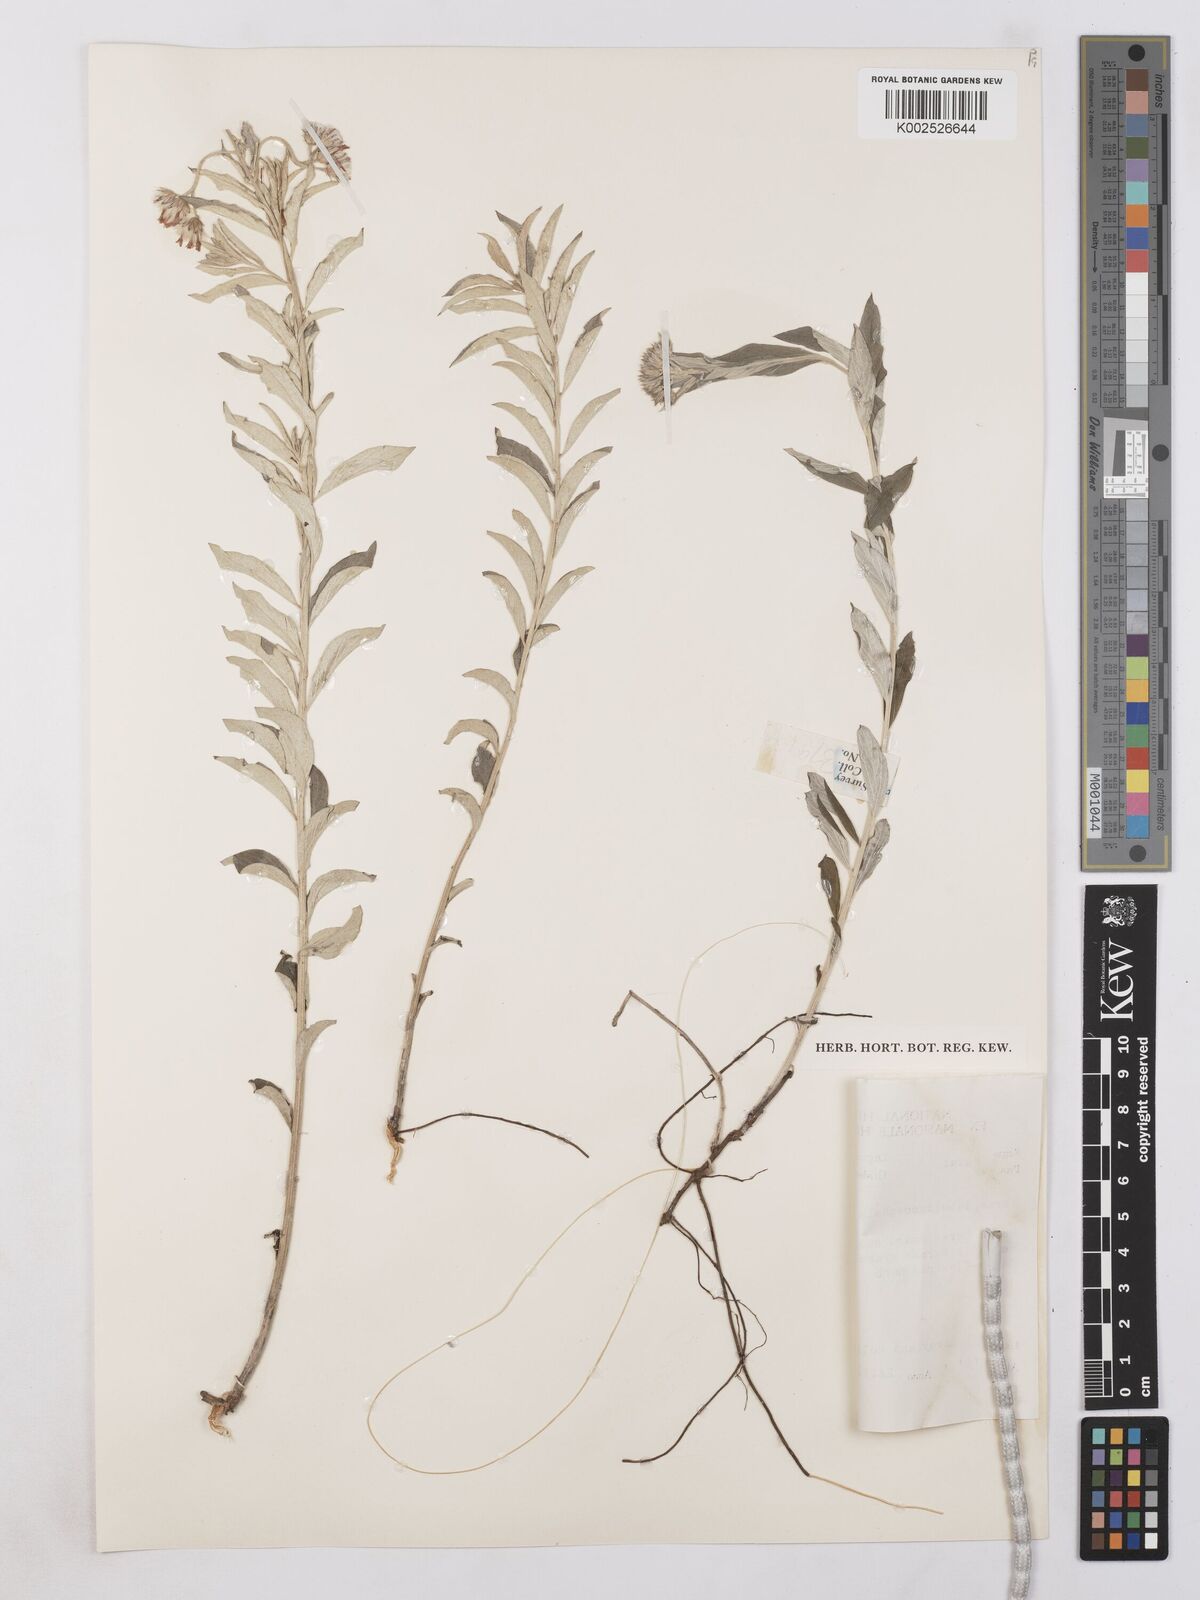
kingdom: Plantae
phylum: Tracheophyta
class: Magnoliopsida
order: Asterales
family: Asteraceae
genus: Hilliardiella
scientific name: Hilliardiella oligocephala
